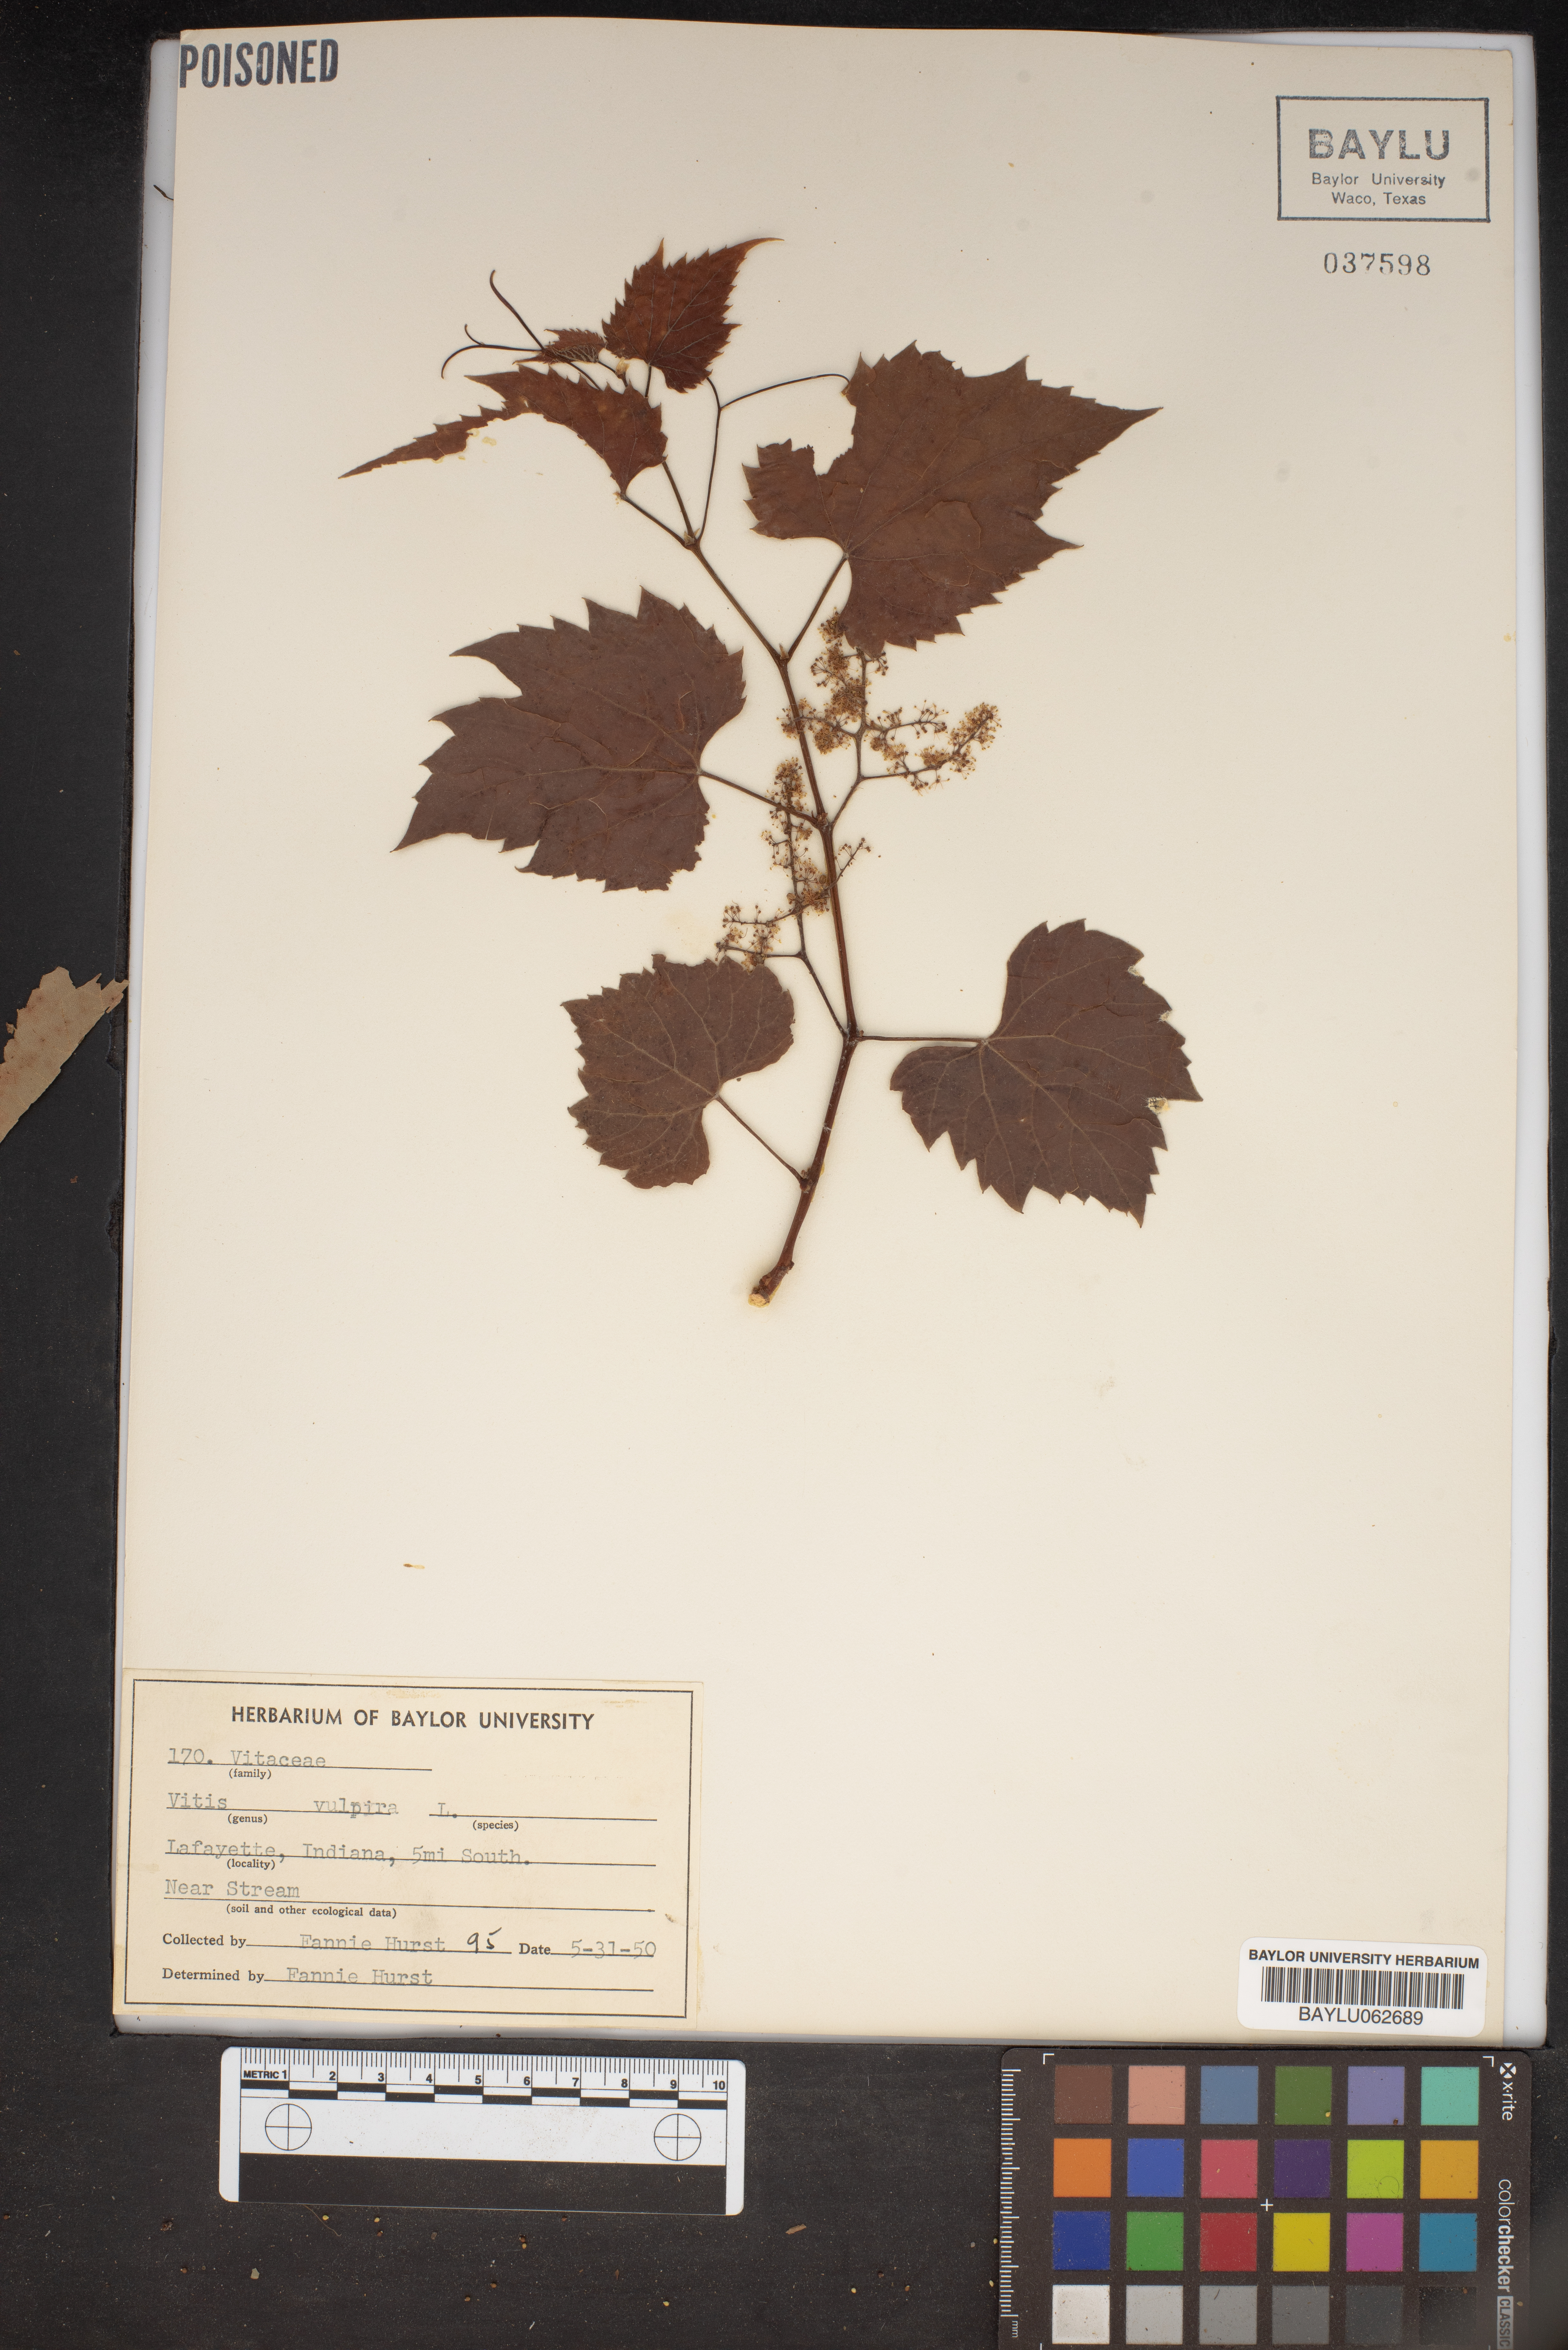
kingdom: Plantae
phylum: Tracheophyta
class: Magnoliopsida
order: Vitales
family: Vitaceae
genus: Vitis
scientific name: Vitis vulpina
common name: Frost grape
